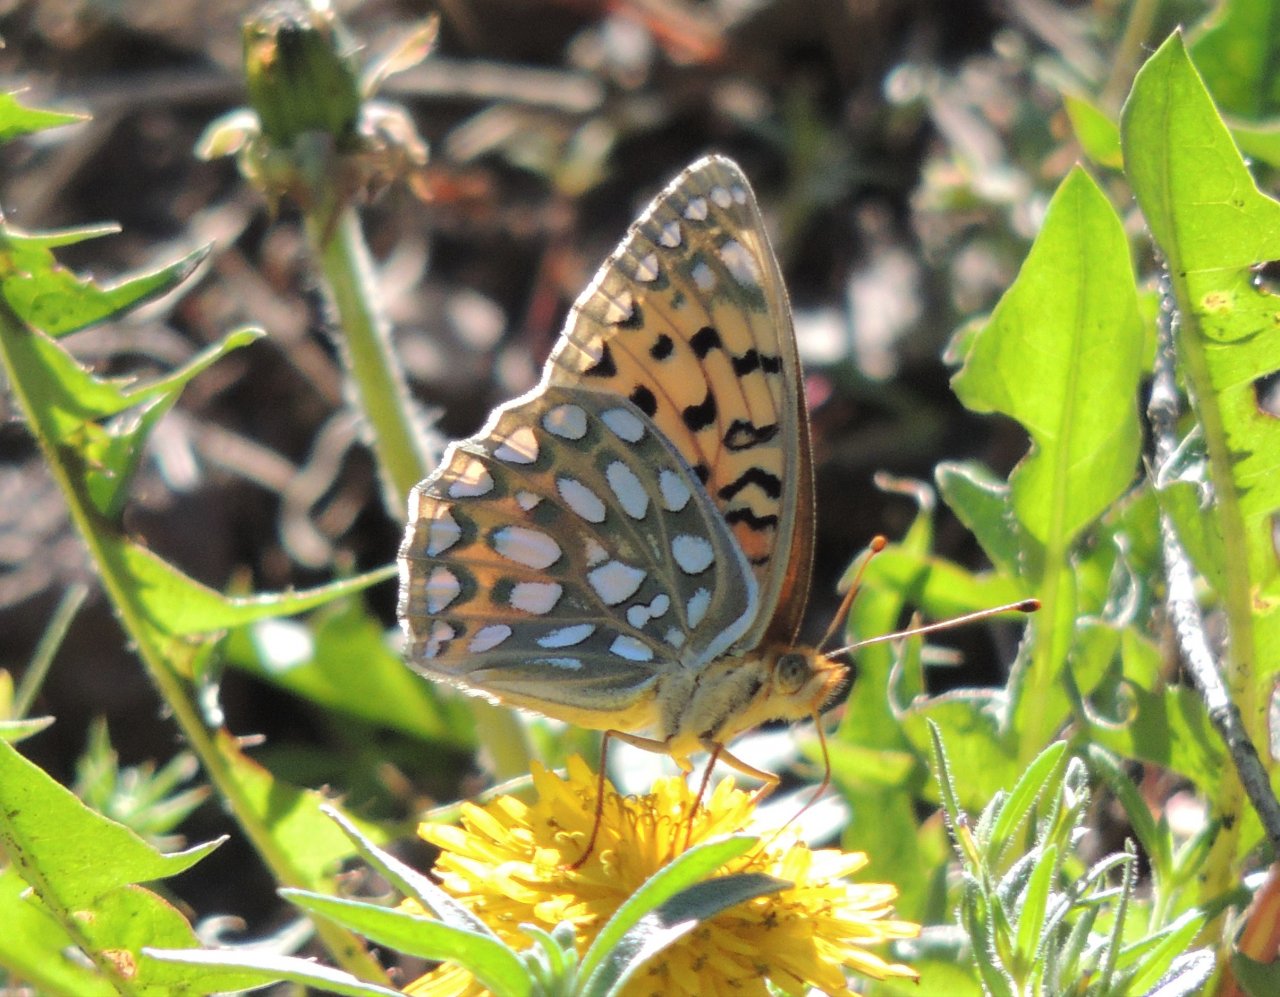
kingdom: Animalia
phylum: Arthropoda
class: Insecta
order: Lepidoptera
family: Nymphalidae
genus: Speyeria
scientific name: Speyeria callippe
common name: Callippe Fritillary
